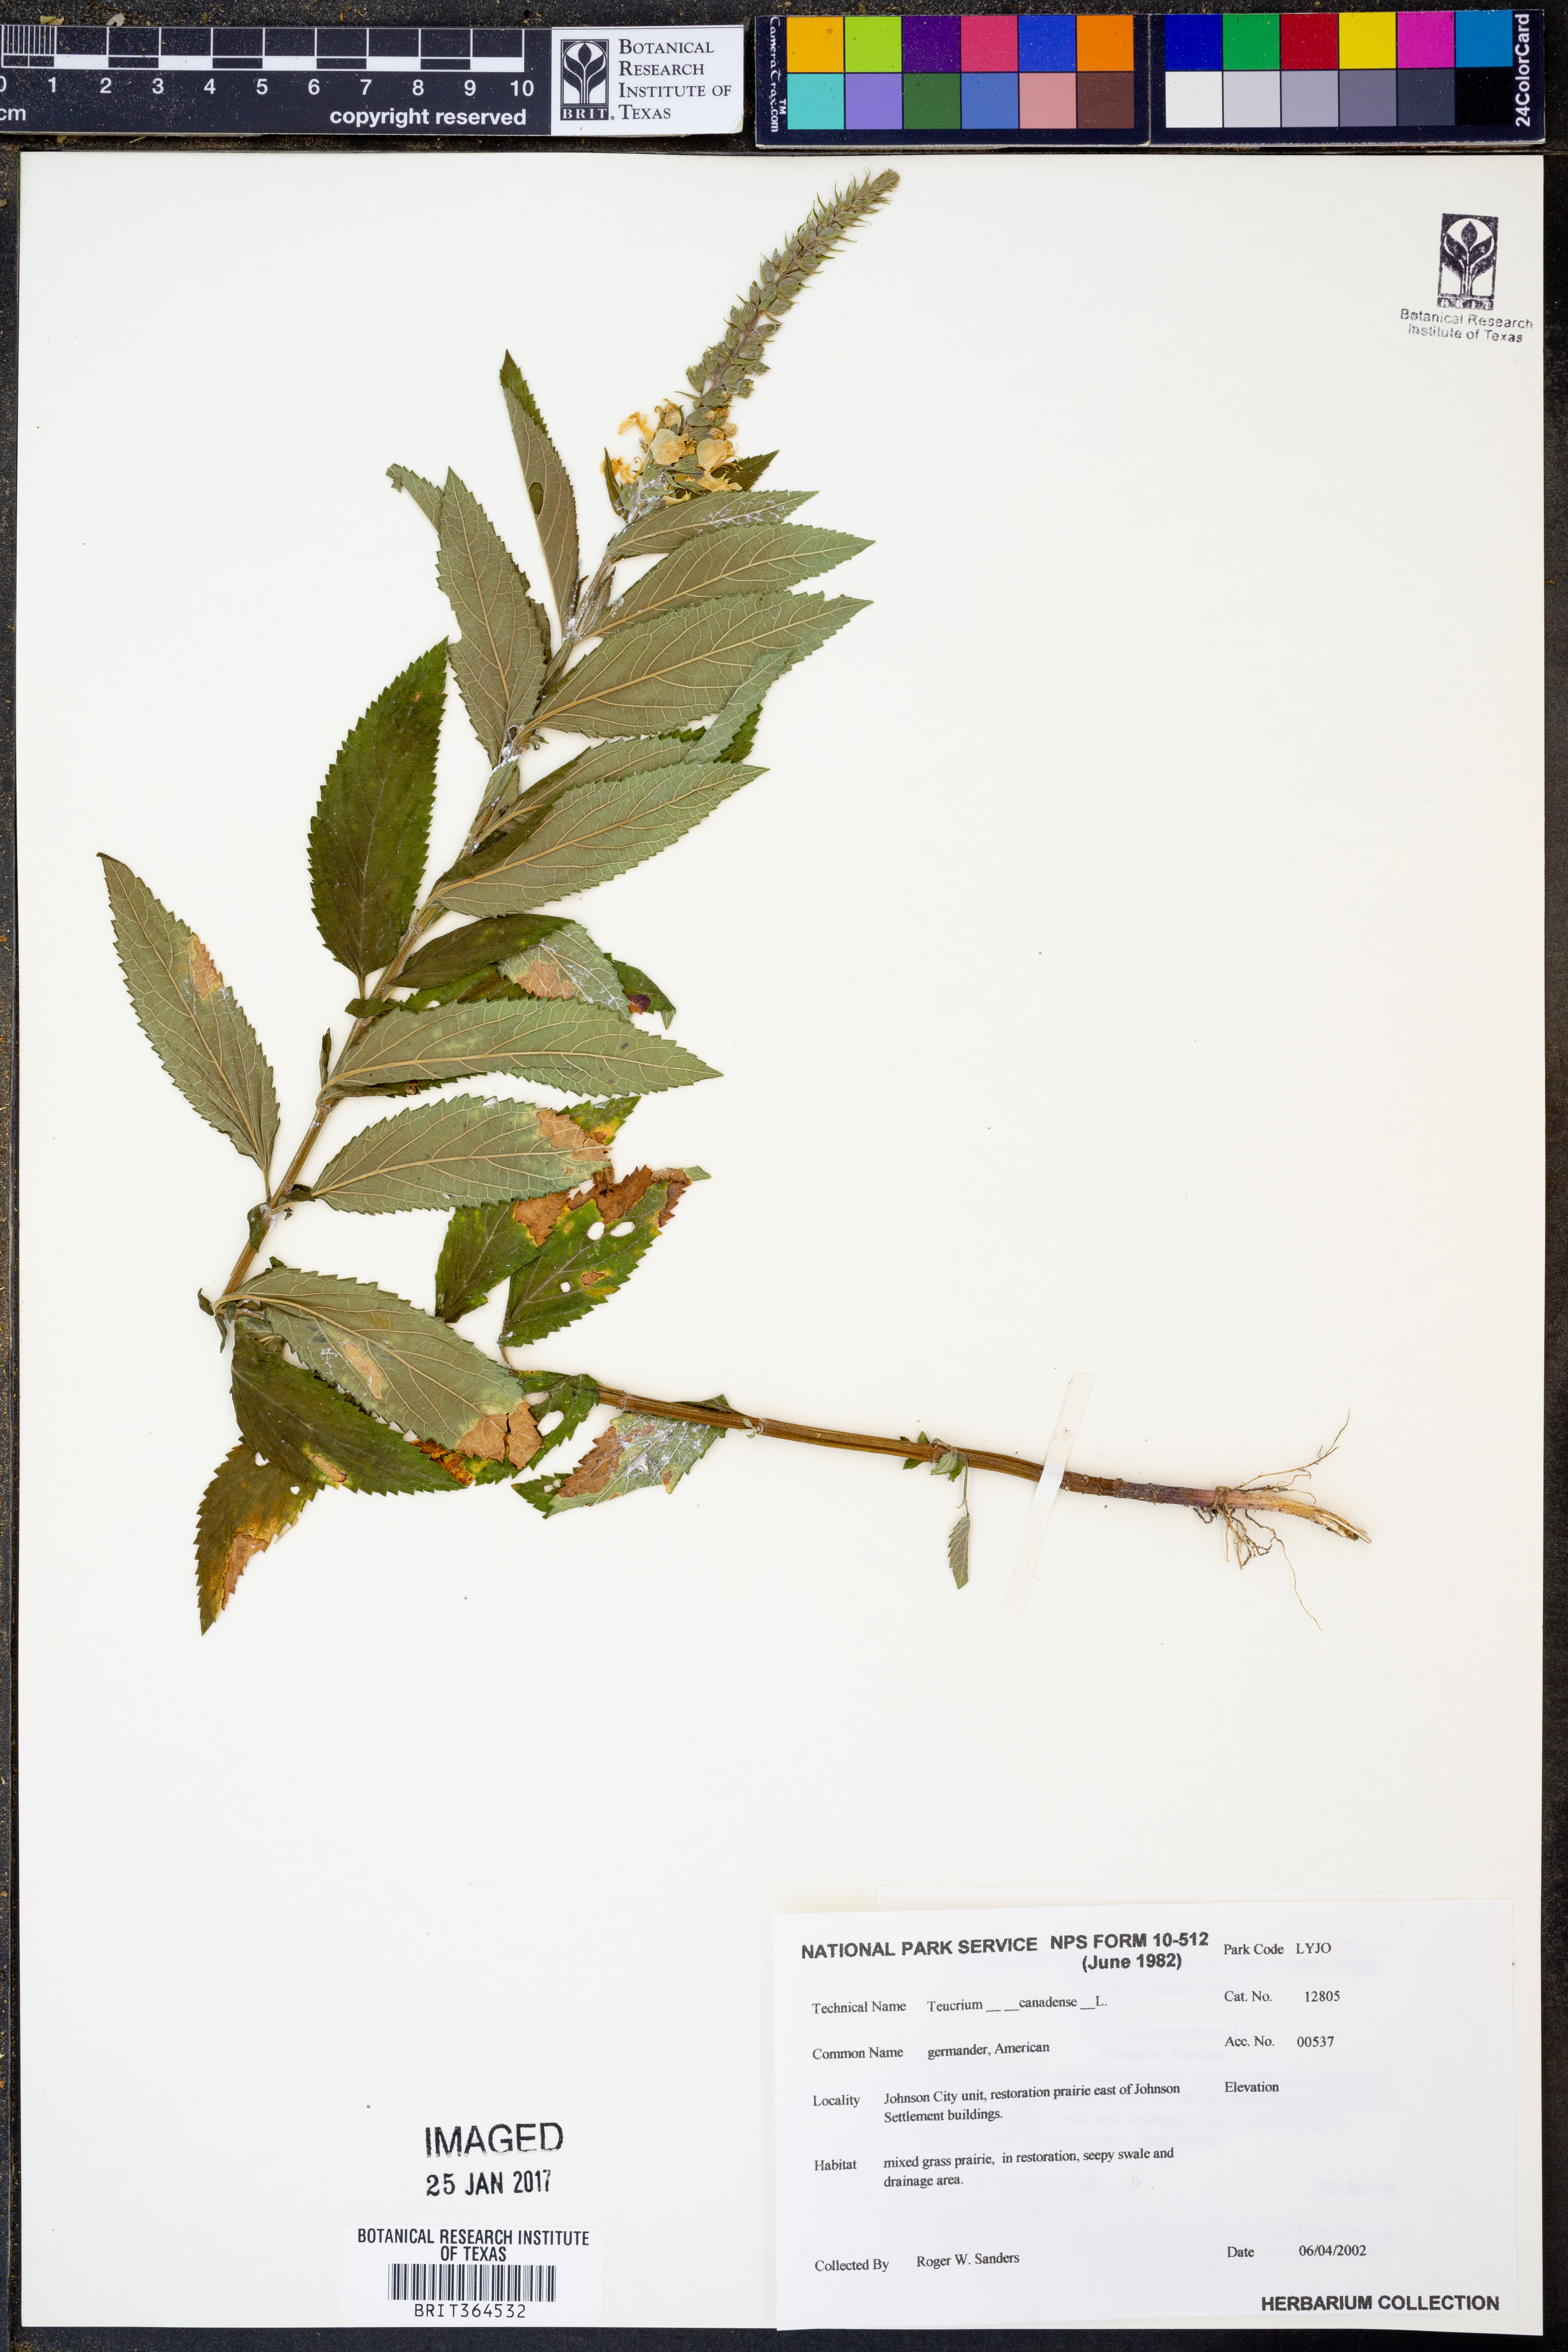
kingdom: Plantae
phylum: Tracheophyta
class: Magnoliopsida
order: Lamiales
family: Lamiaceae
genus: Teucrium
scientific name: Teucrium canadense
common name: American germander
